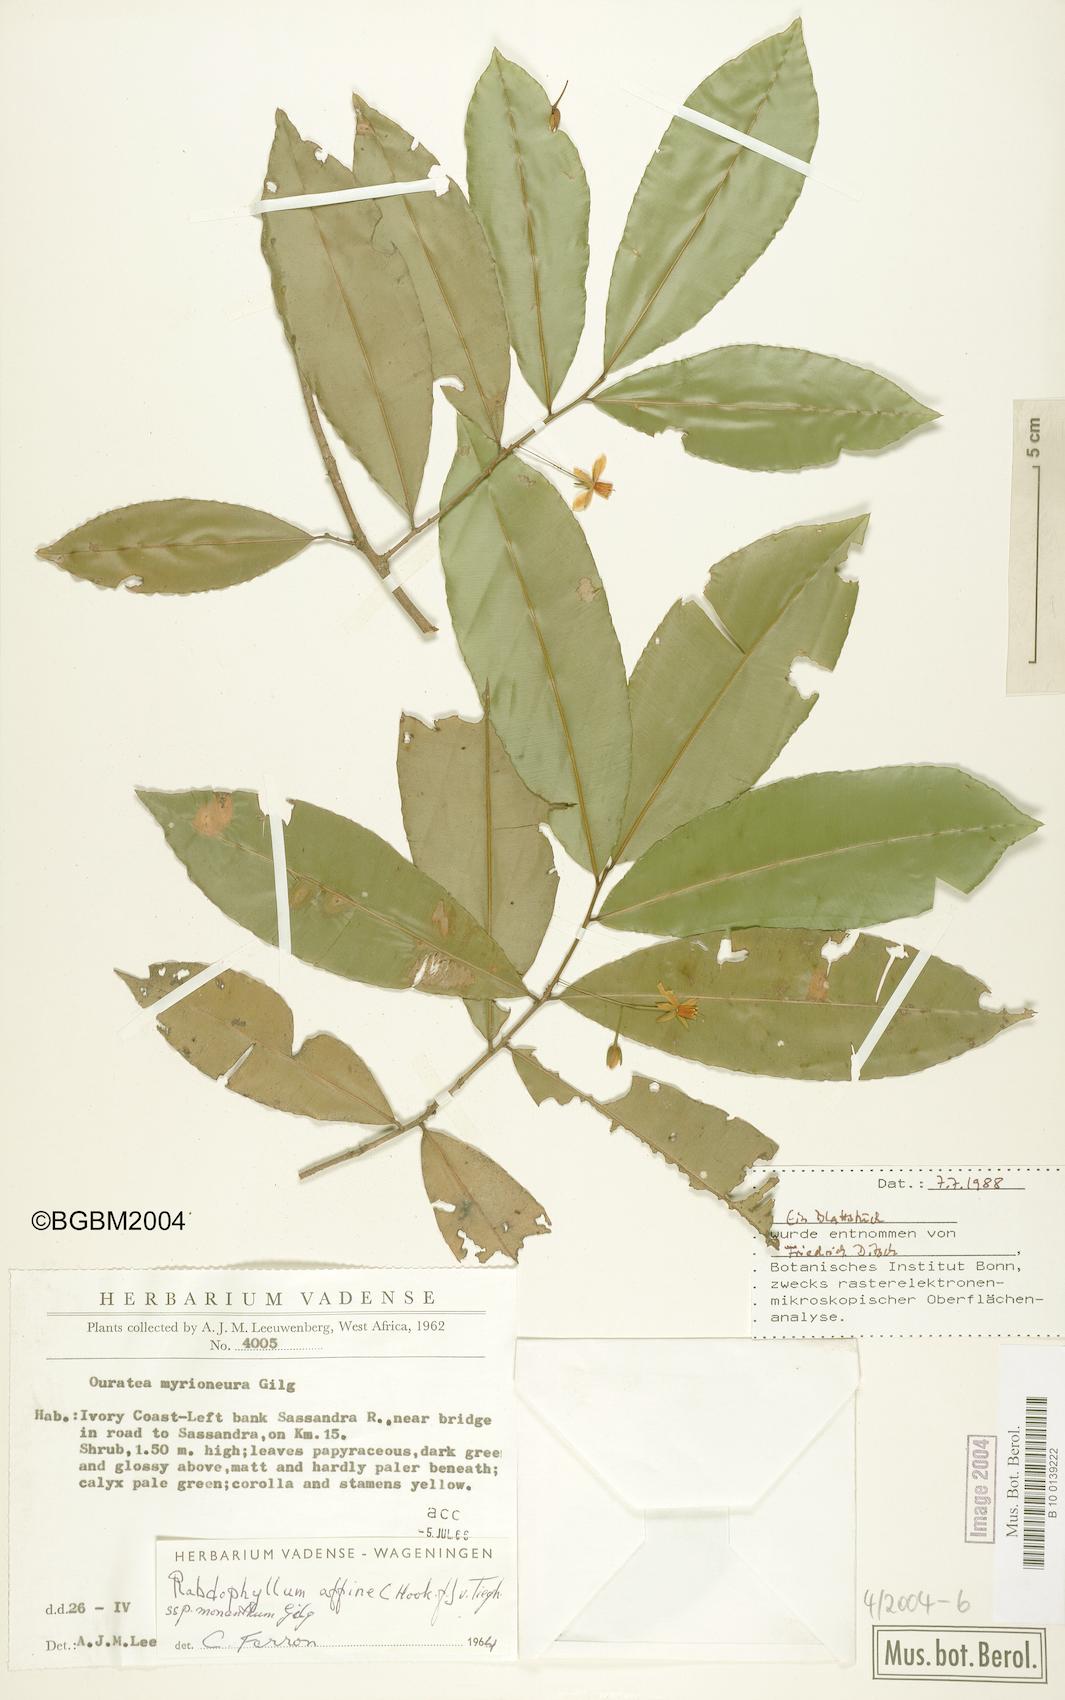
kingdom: Plantae
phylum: Tracheophyta
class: Magnoliopsida
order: Malpighiales
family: Ochnaceae
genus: Rhabdophyllum
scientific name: Rhabdophyllum affine
